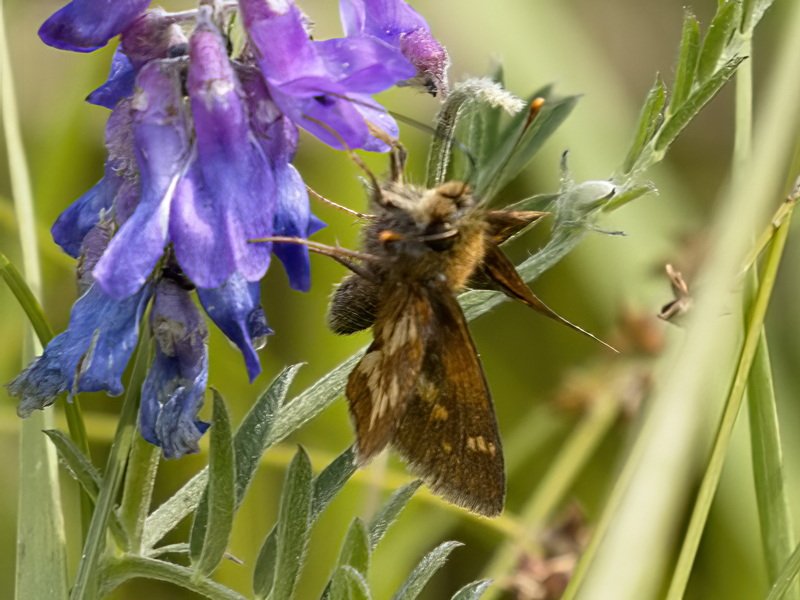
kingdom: Animalia
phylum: Arthropoda
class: Insecta
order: Lepidoptera
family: Hesperiidae
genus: Polites
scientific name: Polites coras
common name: Peck's Skipper
